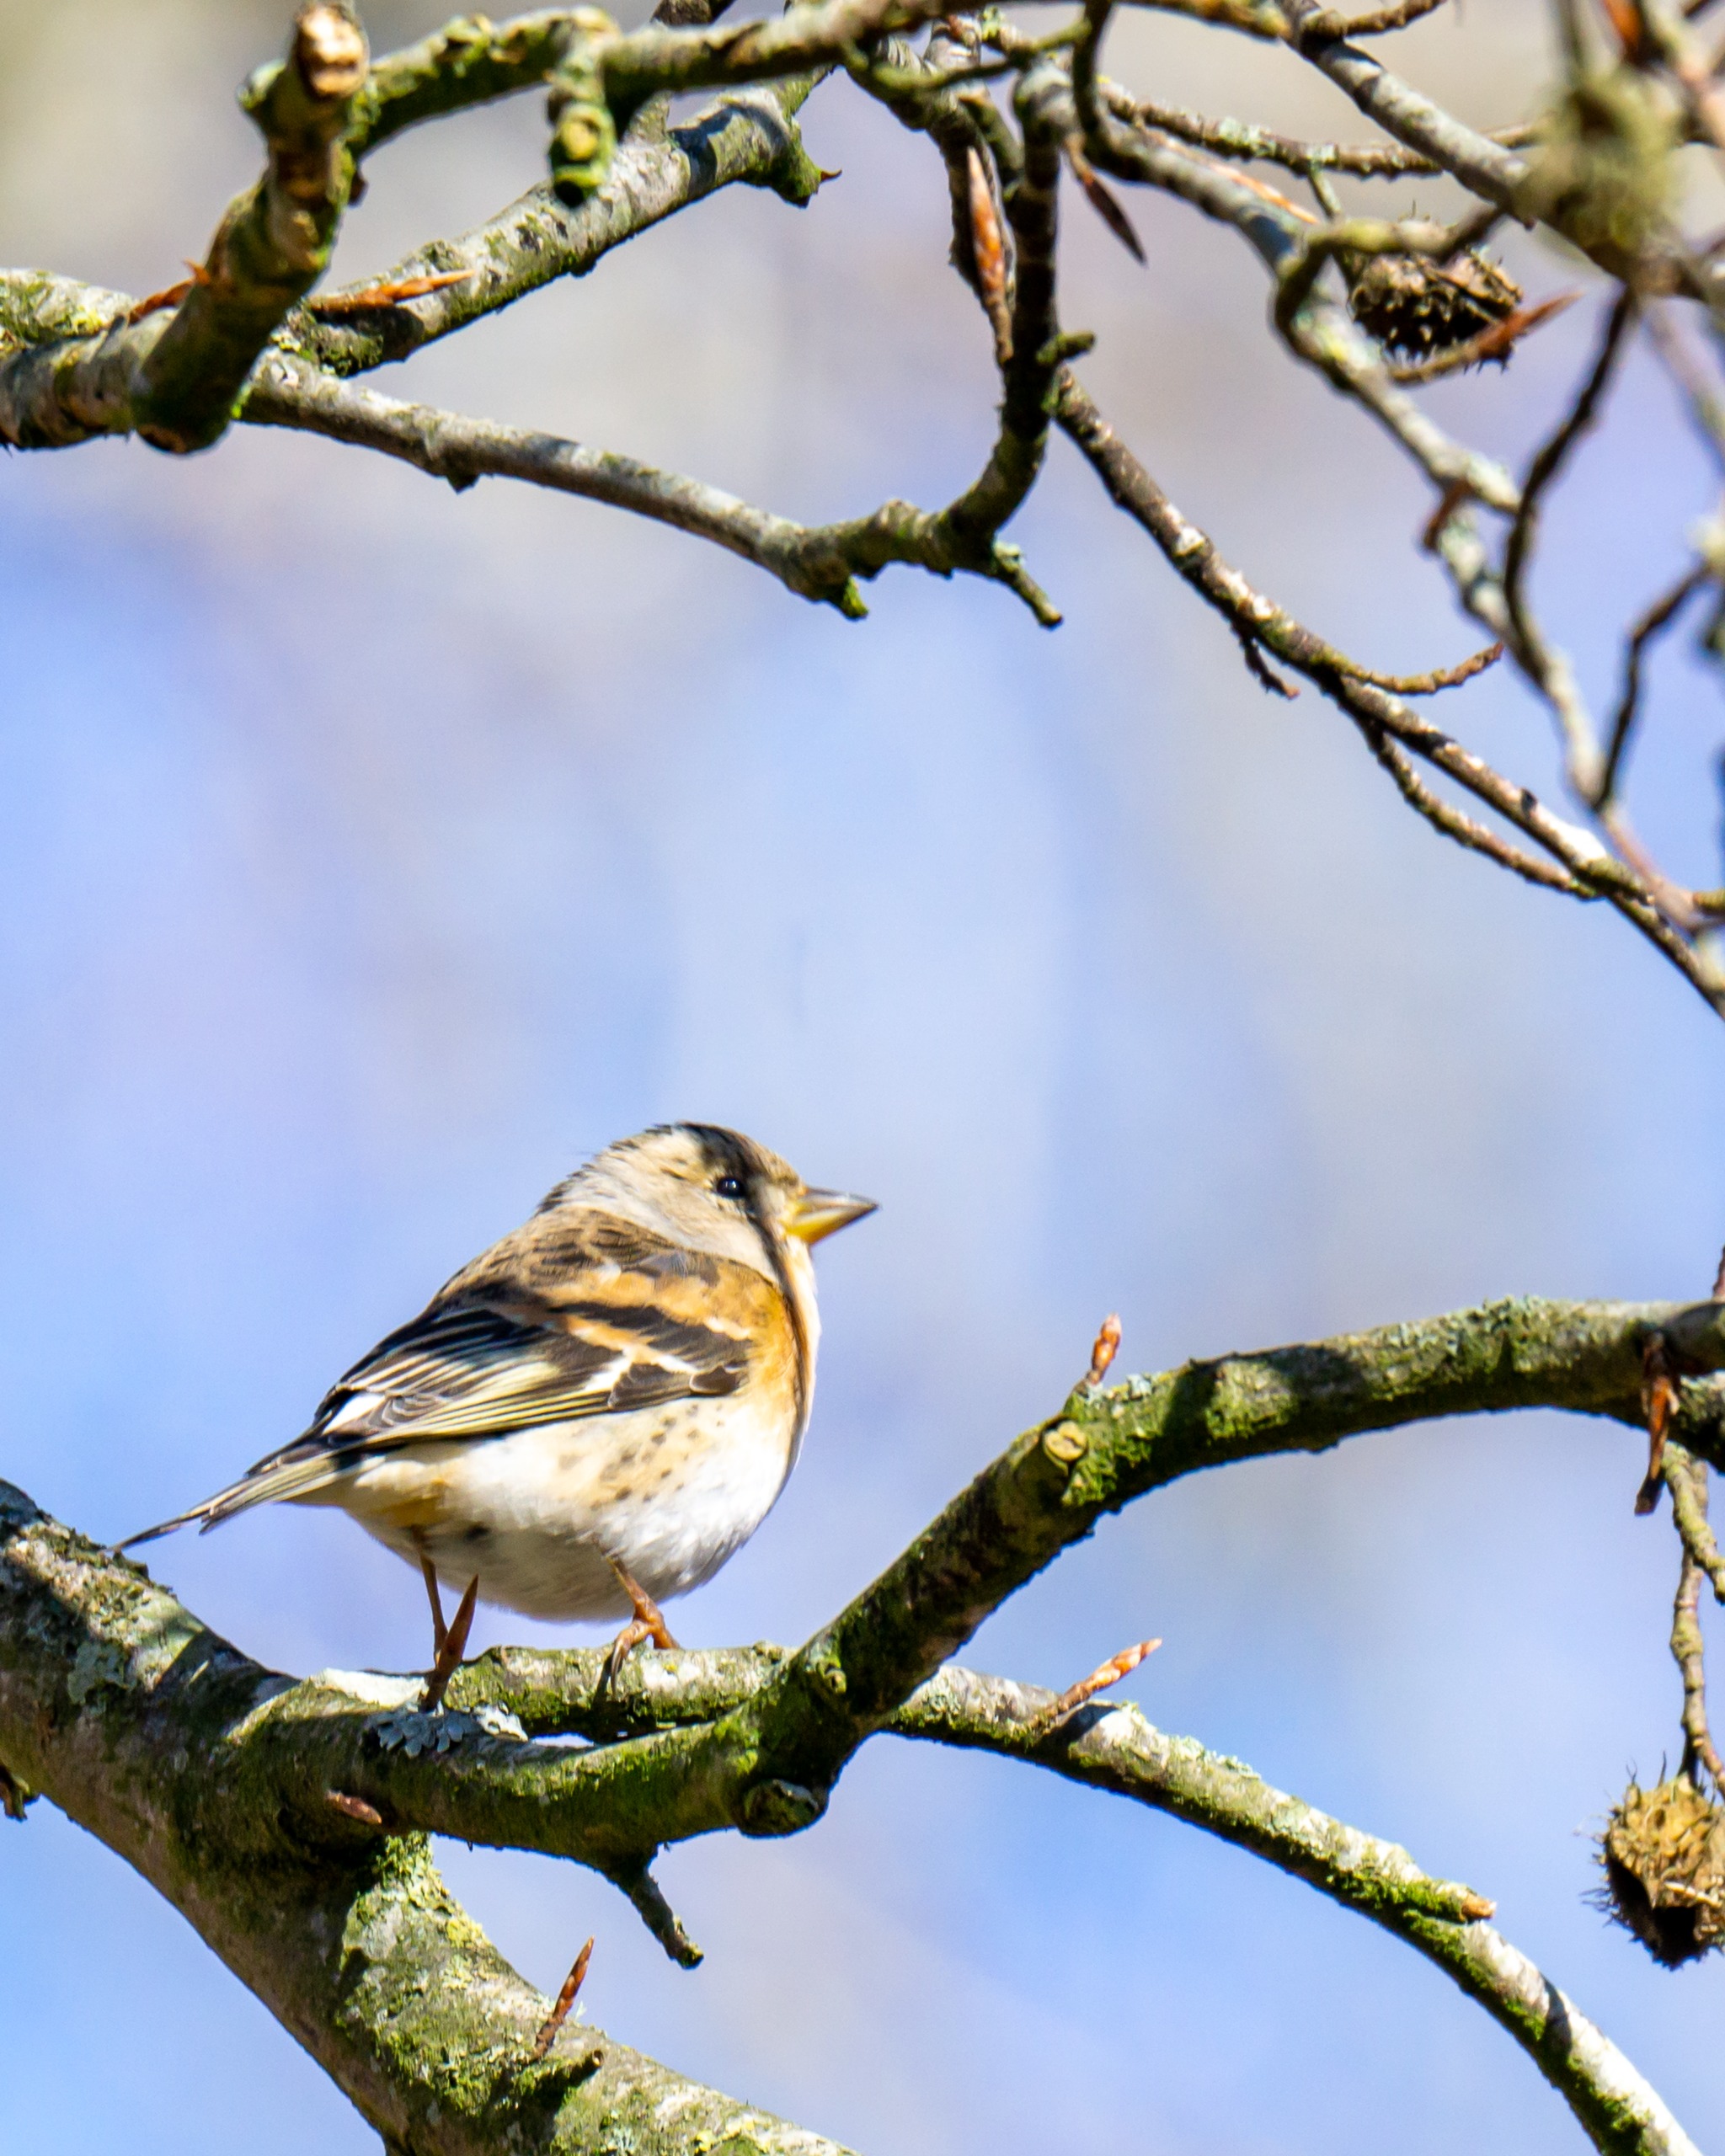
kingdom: Animalia
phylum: Chordata
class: Aves
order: Passeriformes
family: Fringillidae
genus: Fringilla
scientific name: Fringilla montifringilla
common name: Kvækerfinke
